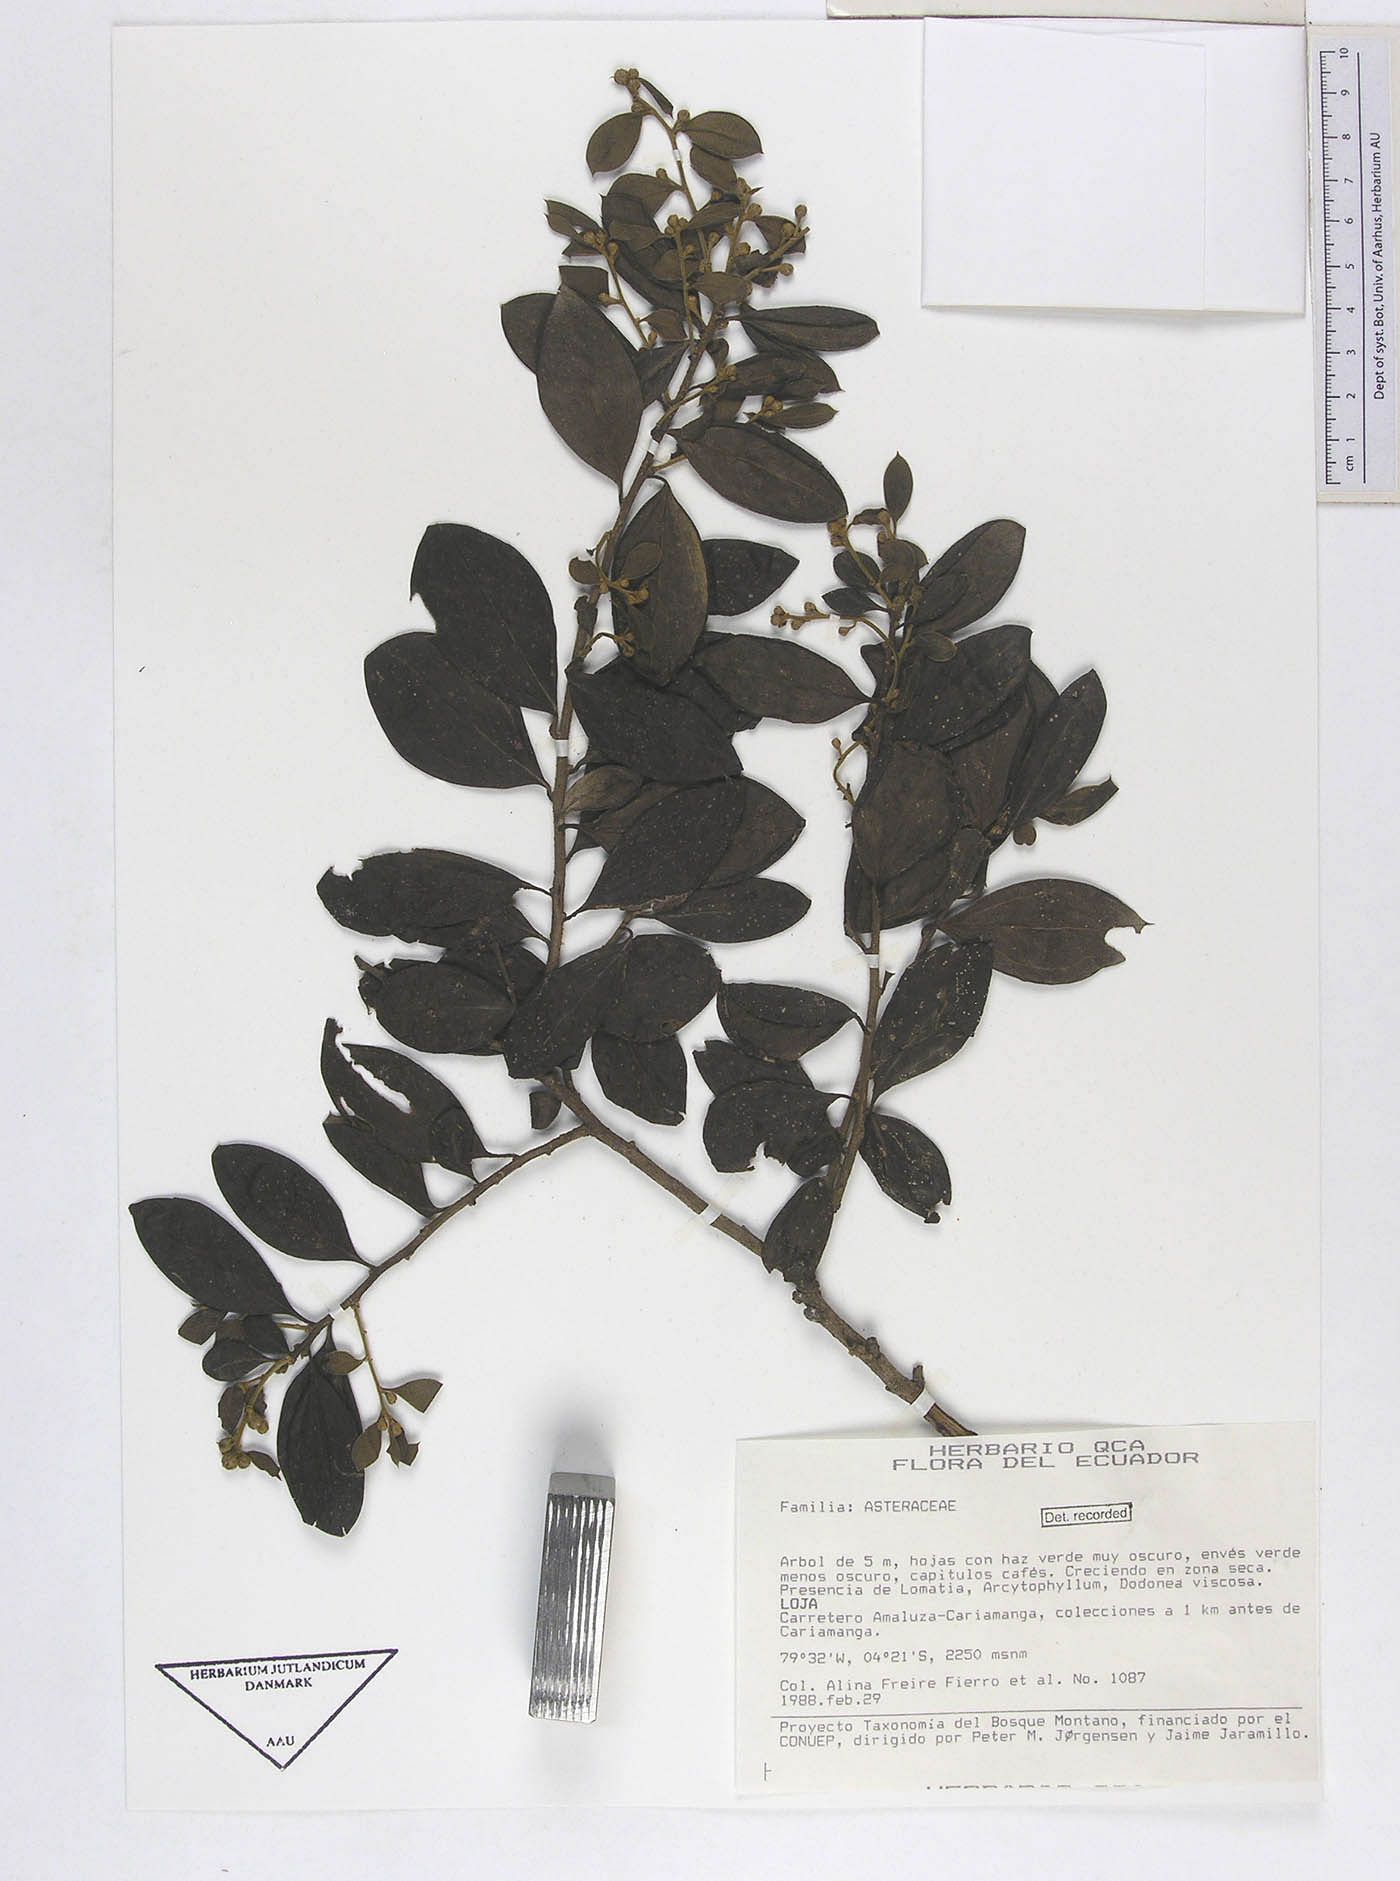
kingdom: Plantae
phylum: Tracheophyta
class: Magnoliopsida
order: Asterales
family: Asteraceae
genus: Dasyphyllum
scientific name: Dasyphyllum weberbaueri
